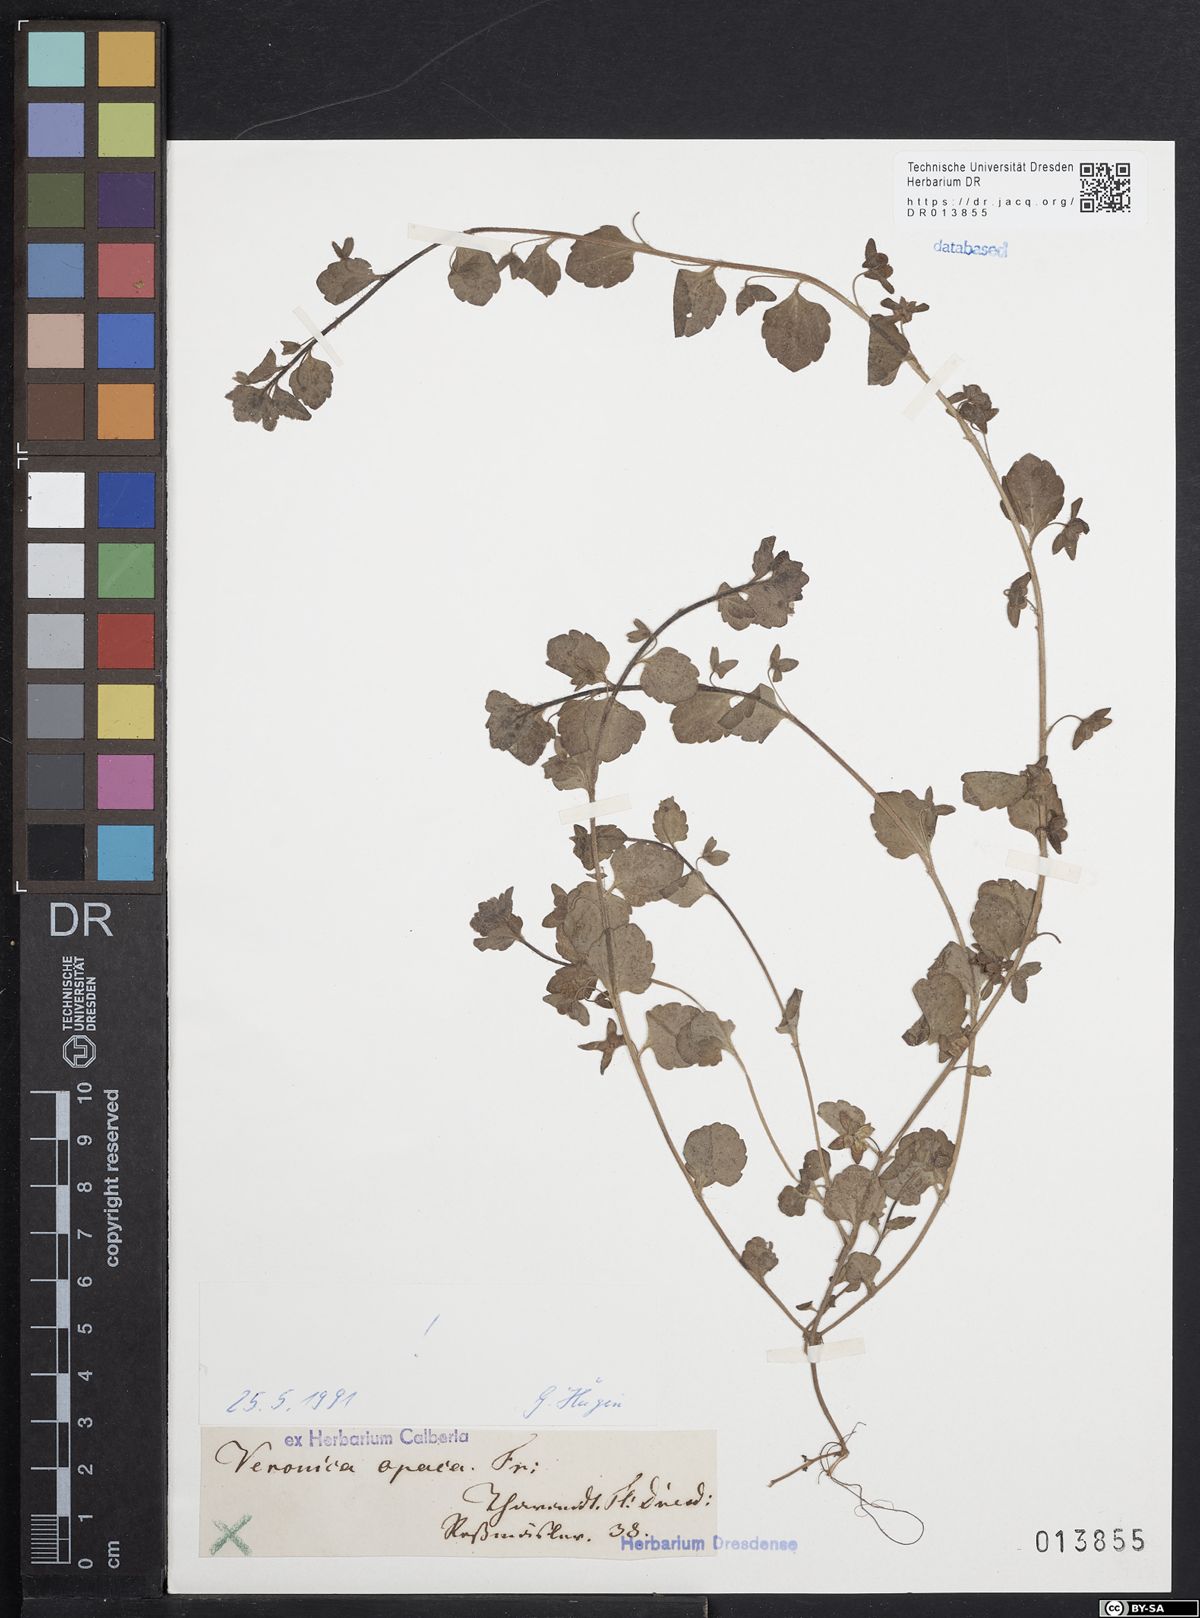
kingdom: Plantae
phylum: Tracheophyta
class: Magnoliopsida
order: Lamiales
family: Plantaginaceae
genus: Veronica
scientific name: Veronica opaca
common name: Dark speedwell
